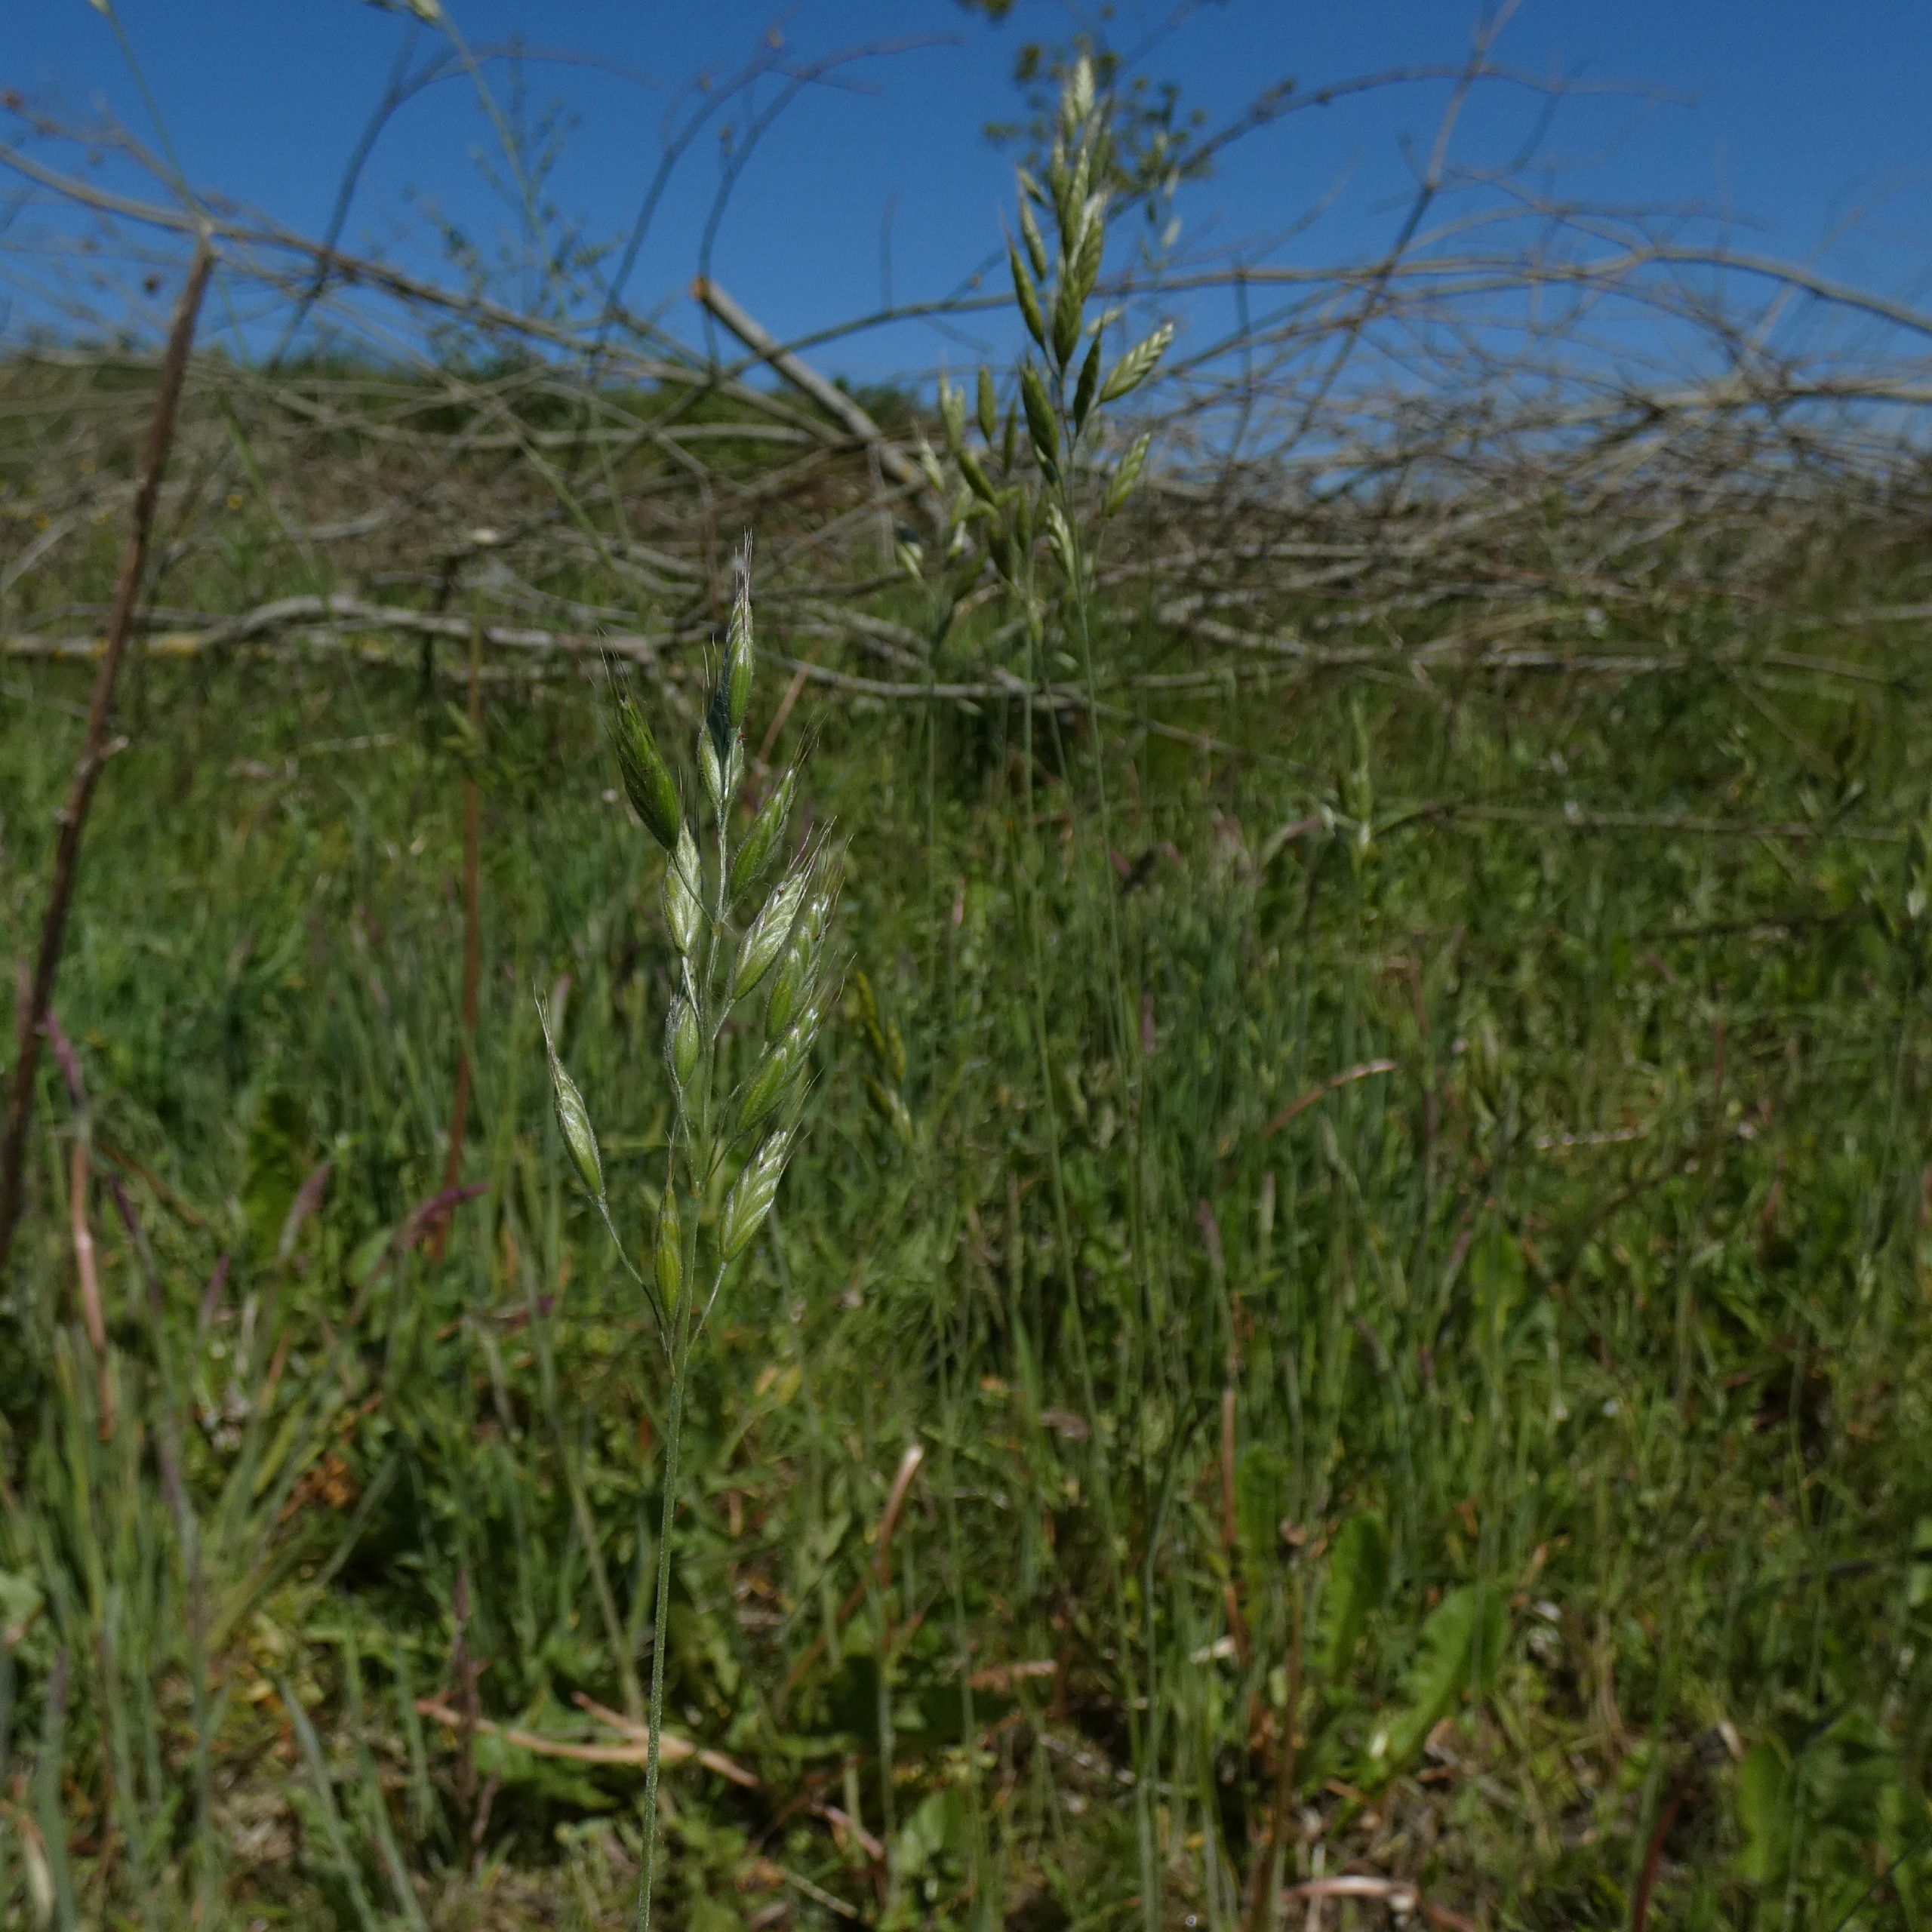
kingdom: Plantae
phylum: Tracheophyta
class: Liliopsida
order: Poales
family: Poaceae
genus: Bromus
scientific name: Bromus hordeaceus
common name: Blød hejre
